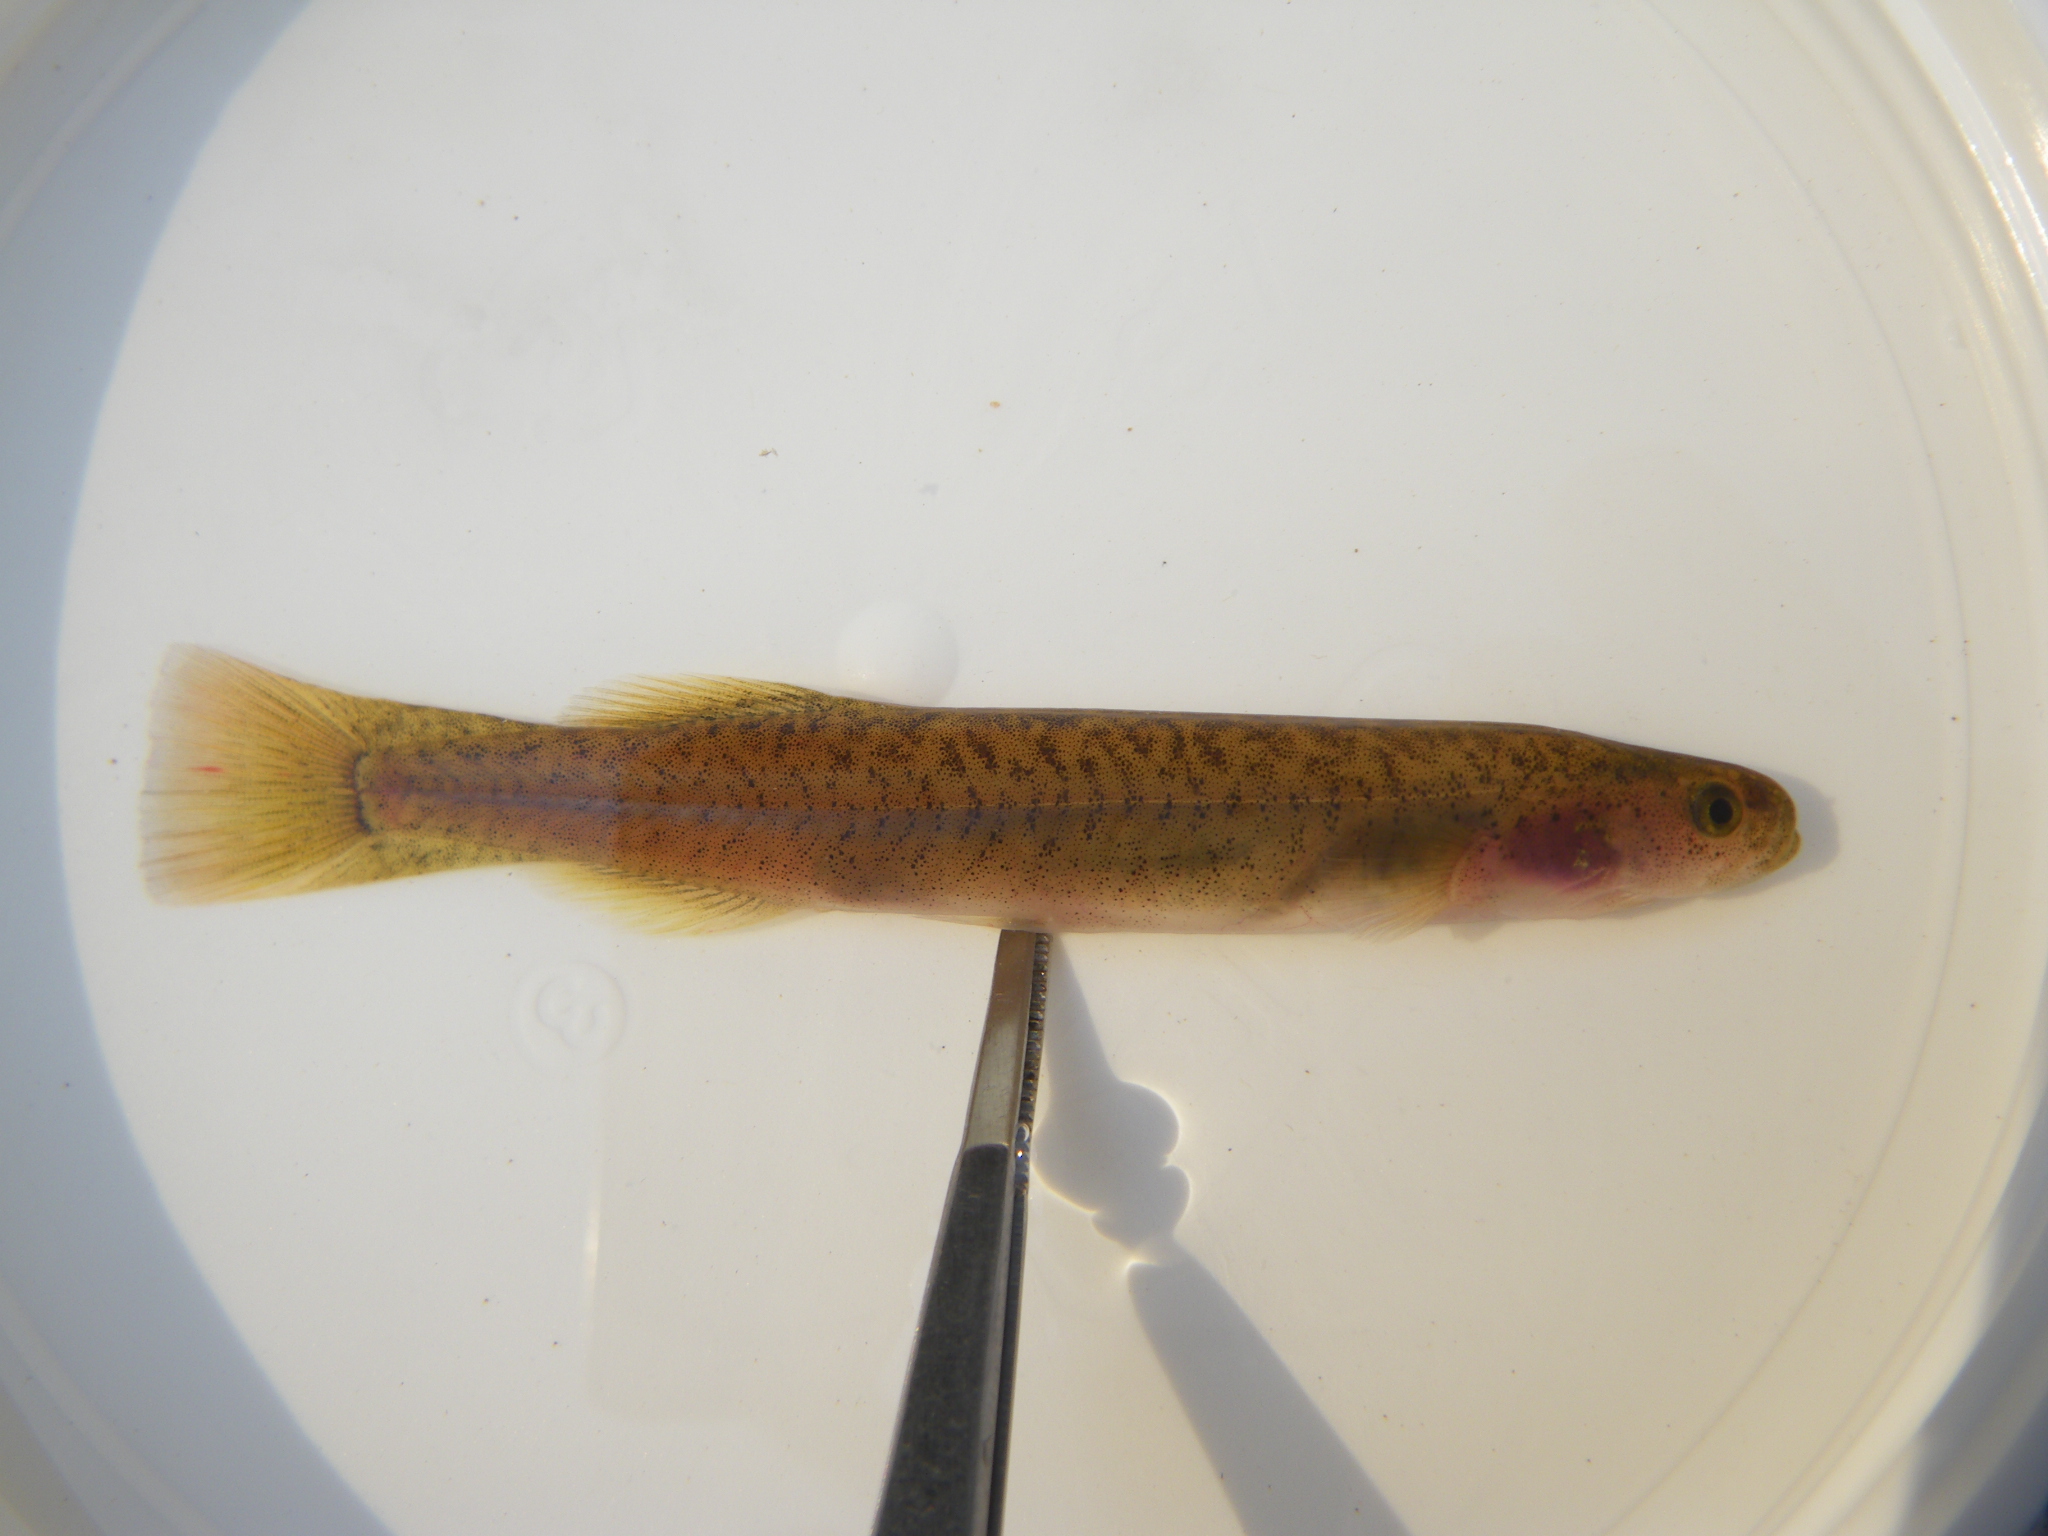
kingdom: Animalia
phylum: Chordata
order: Osmeriformes
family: Galaxiidae
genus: Galaxias
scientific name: Galaxias
